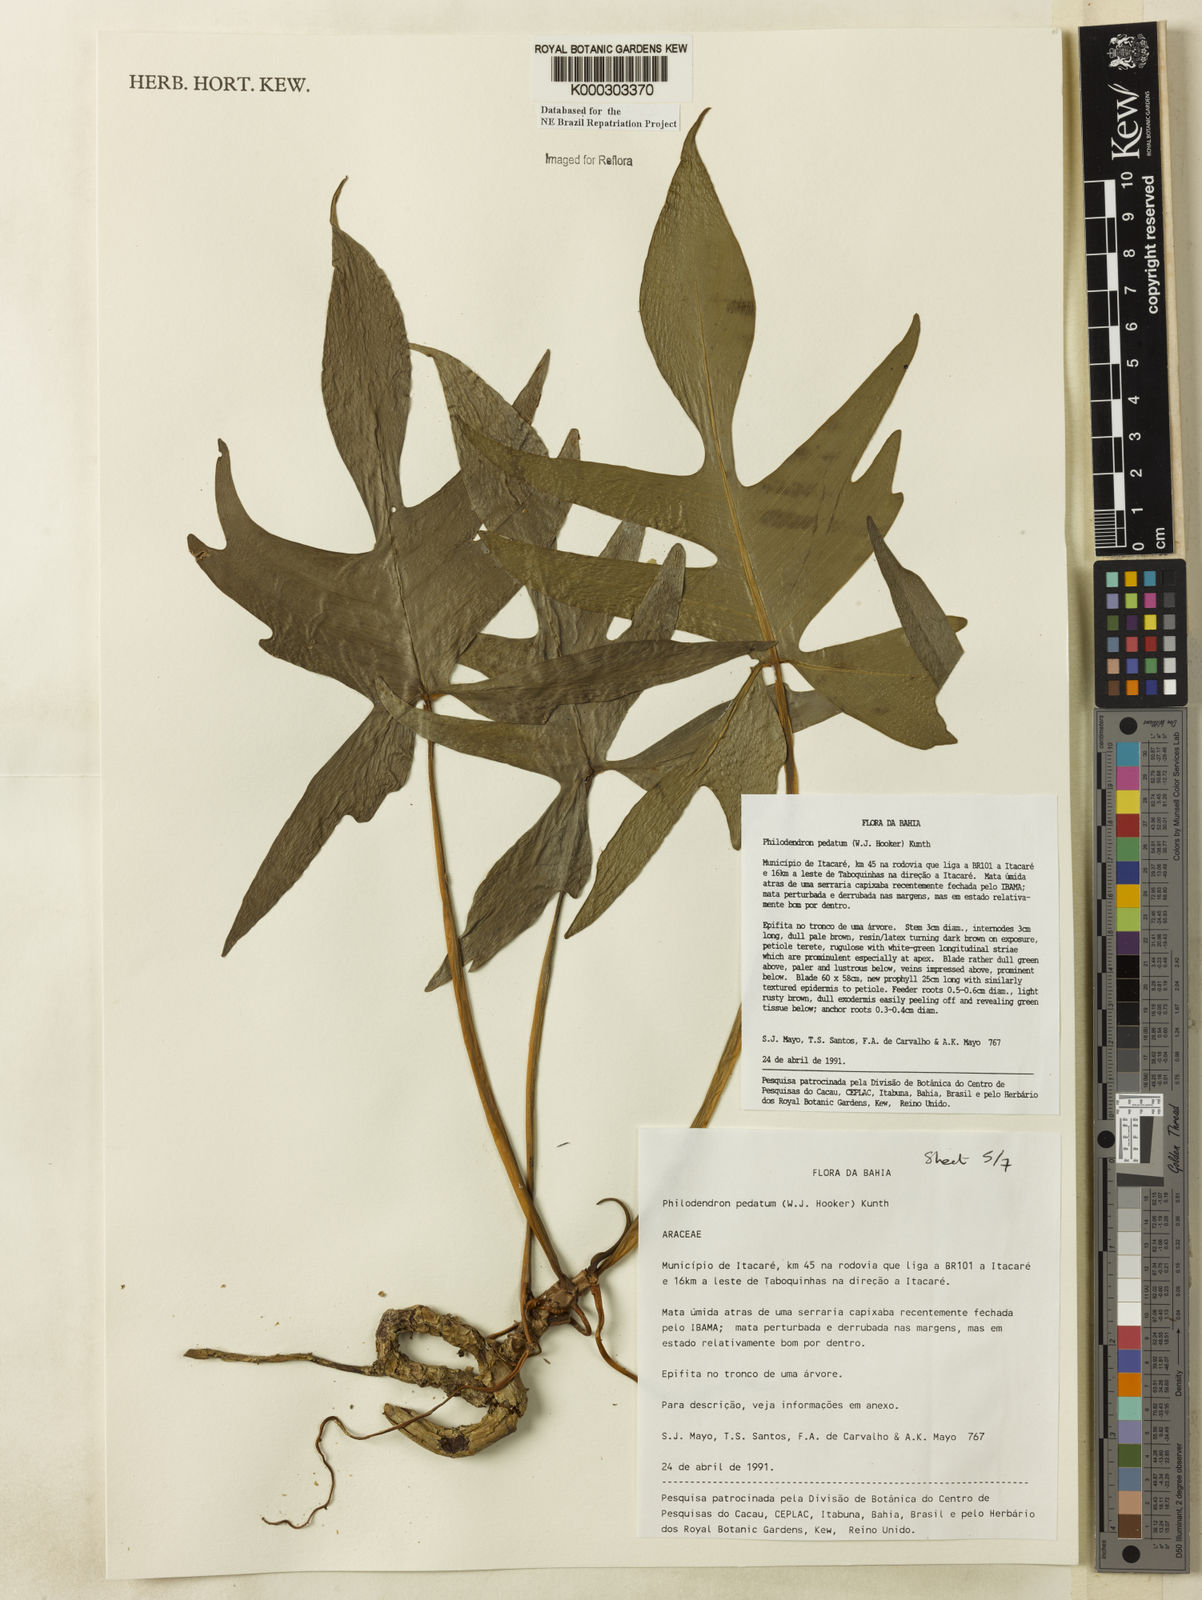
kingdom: Plantae
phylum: Tracheophyta
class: Liliopsida
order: Alismatales
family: Araceae
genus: Philodendron
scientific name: Philodendron pedatum
